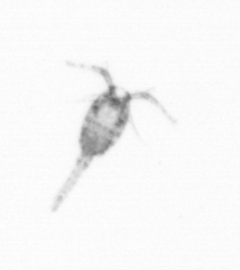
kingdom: Animalia
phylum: Arthropoda
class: Copepoda
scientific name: Copepoda
